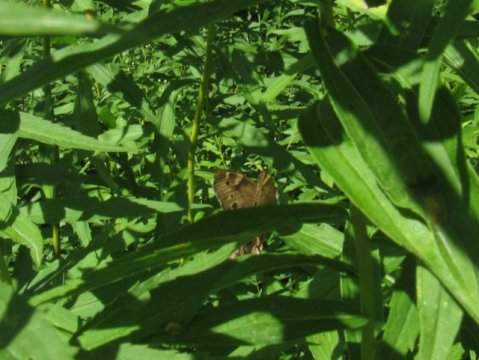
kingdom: Animalia
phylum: Arthropoda
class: Insecta
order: Lepidoptera
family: Nymphalidae
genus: Lethe
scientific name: Lethe anthedon
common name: Northern Pearly-Eye
